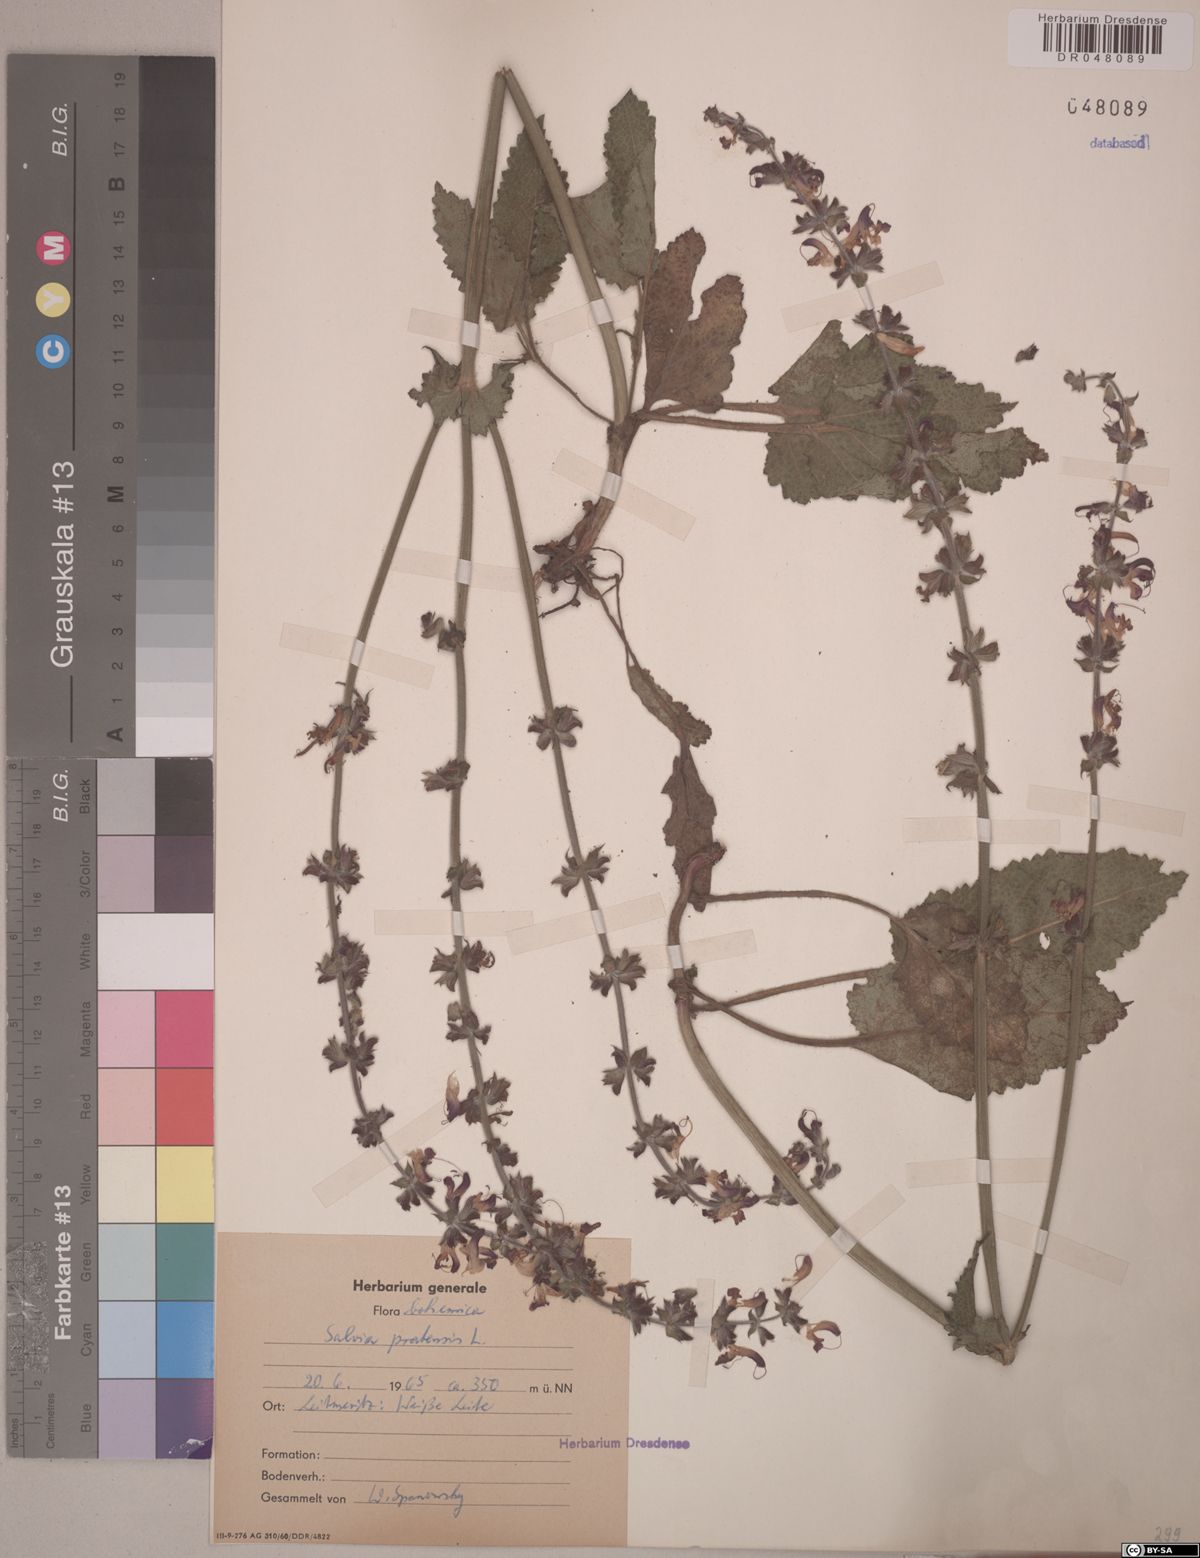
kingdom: Plantae
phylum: Tracheophyta
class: Magnoliopsida
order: Lamiales
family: Lamiaceae
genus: Salvia
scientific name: Salvia pratensis
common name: Meadow sage
